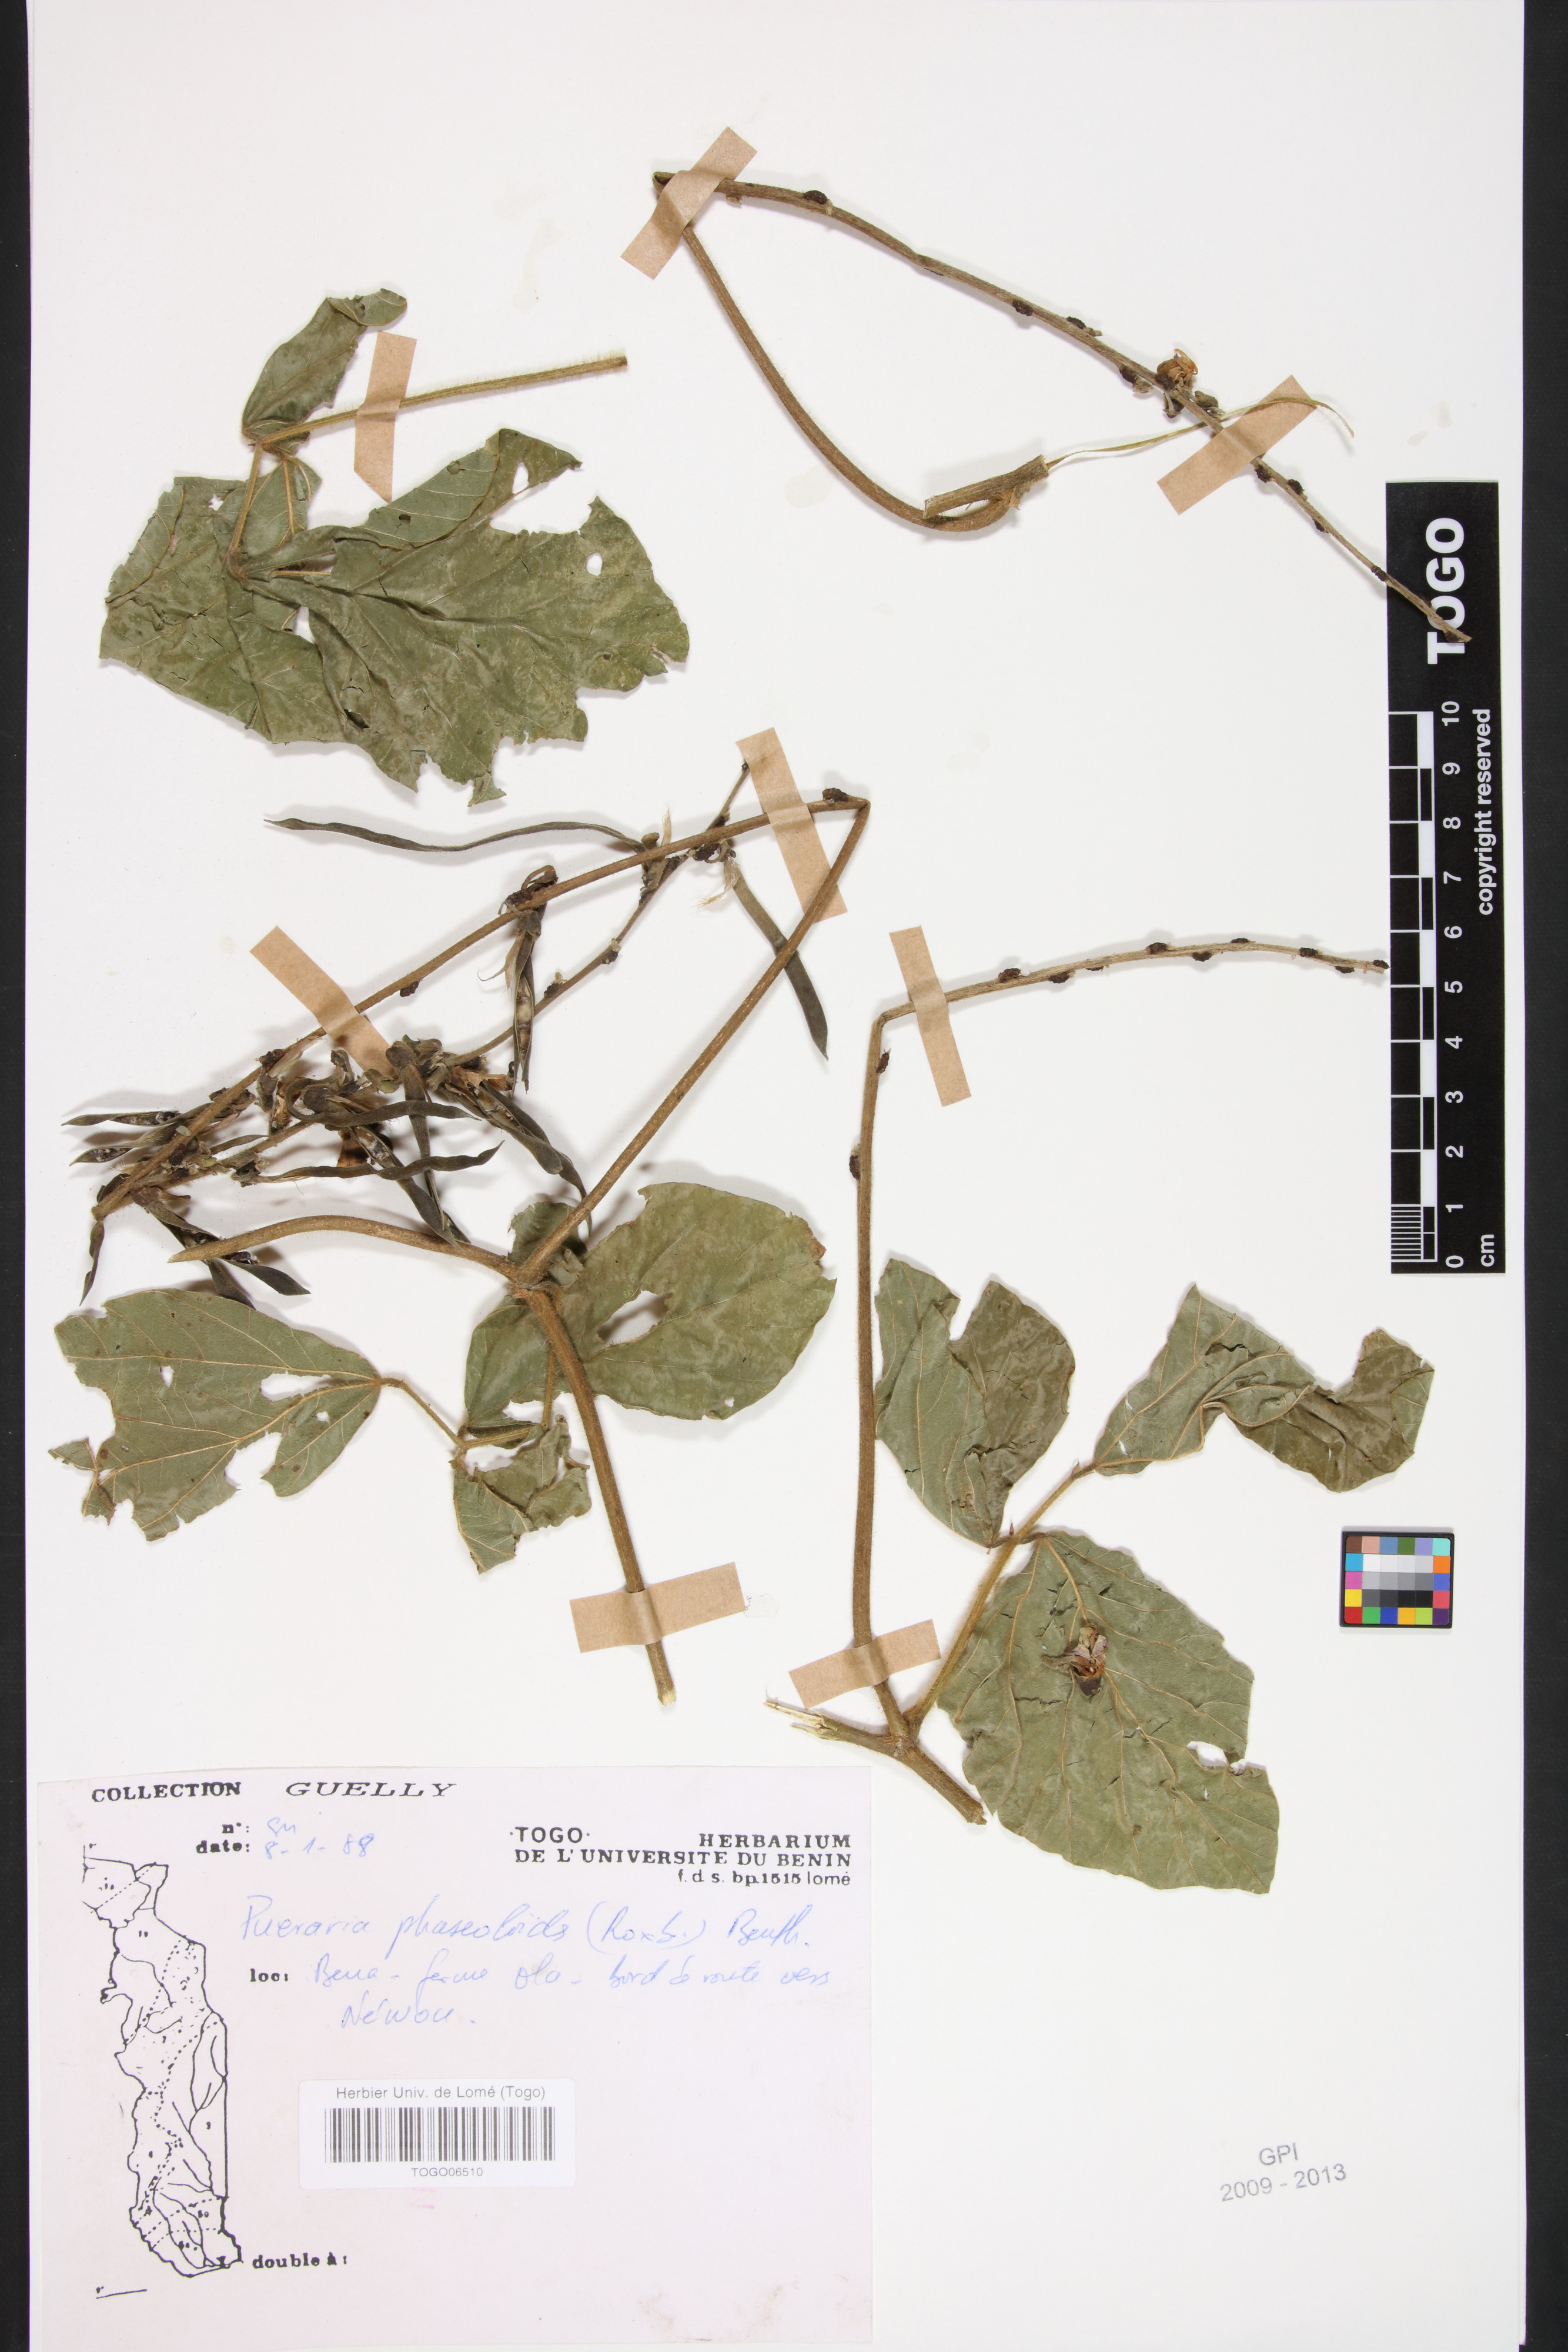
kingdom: Plantae
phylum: Tracheophyta
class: Magnoliopsida
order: Fabales
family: Fabaceae
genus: Neustanthus
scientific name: Neustanthus phaseoloides
